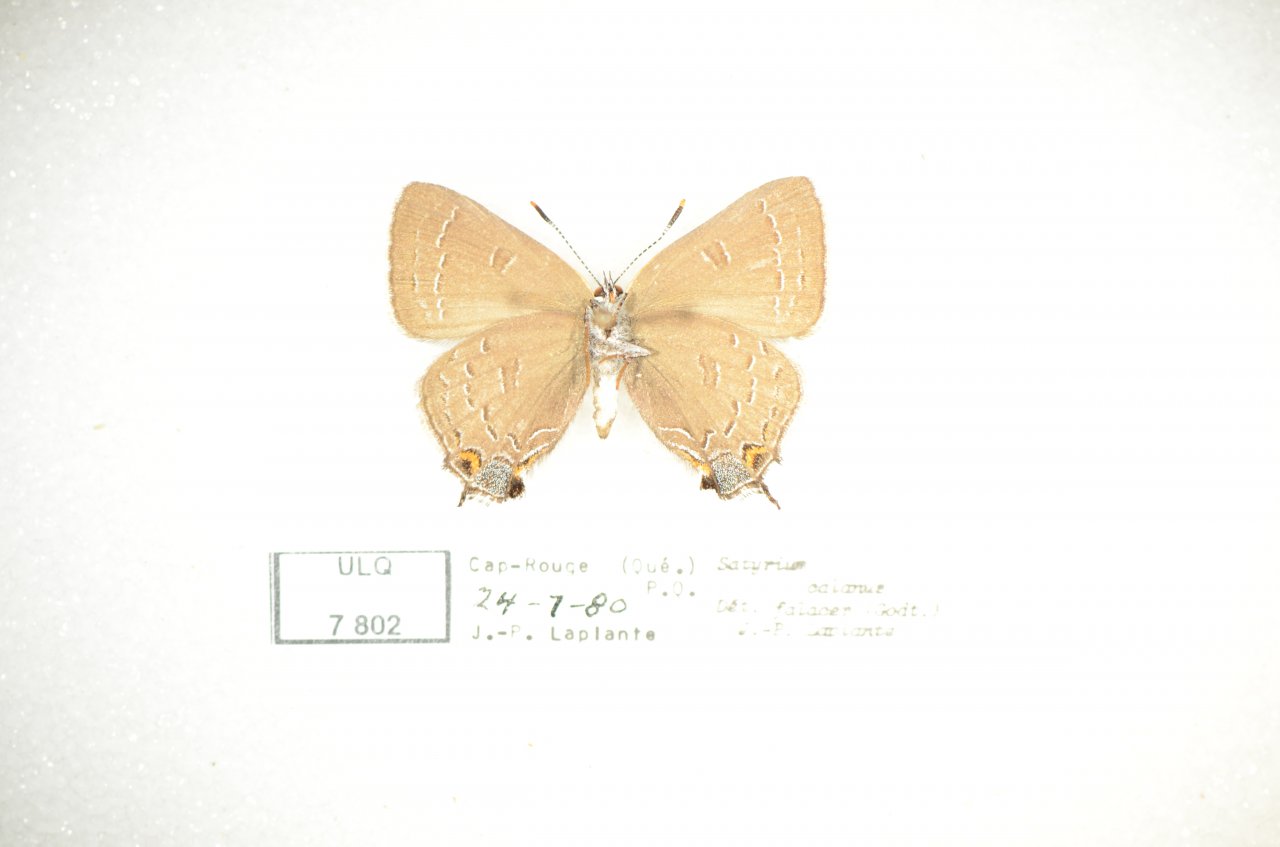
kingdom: Animalia
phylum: Arthropoda
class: Insecta
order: Lepidoptera
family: Lycaenidae
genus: Satyrium
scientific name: Satyrium calanus
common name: Banded Hairstreak
